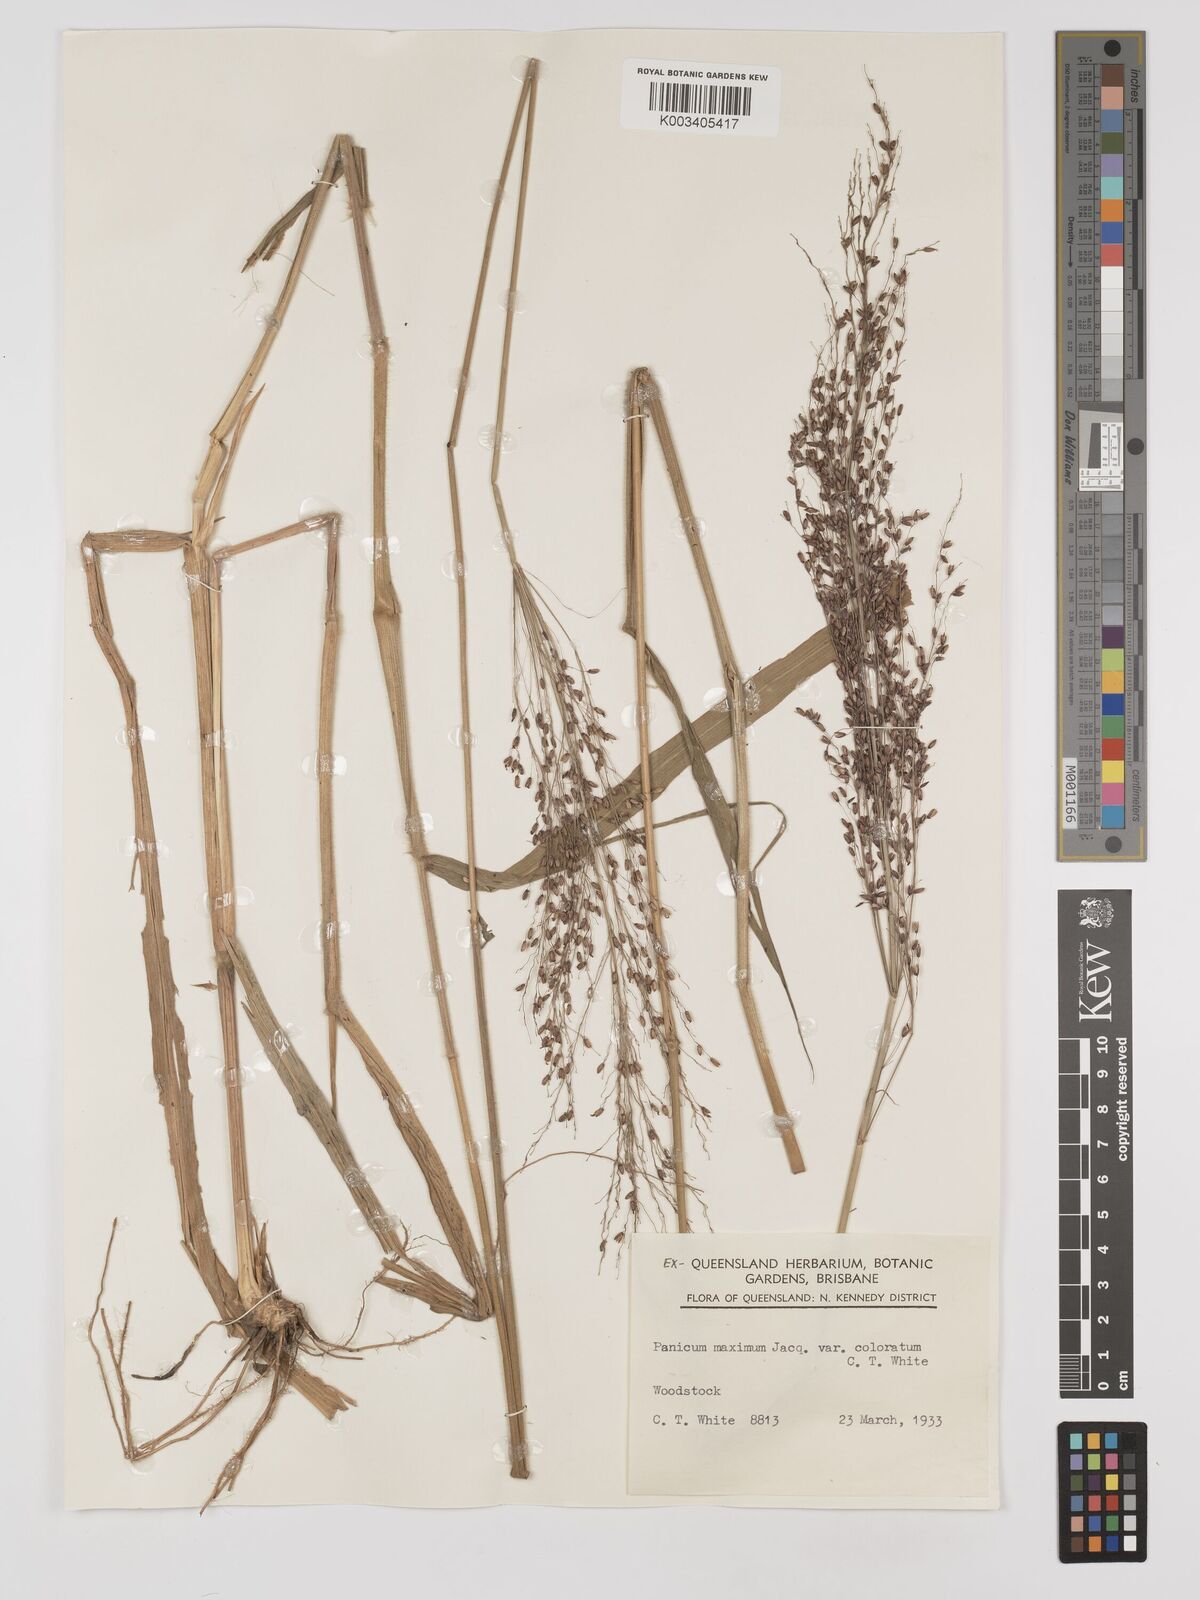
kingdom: Plantae
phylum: Tracheophyta
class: Liliopsida
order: Poales
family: Poaceae
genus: Megathyrsus
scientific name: Megathyrsus maximus
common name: Guineagrass
